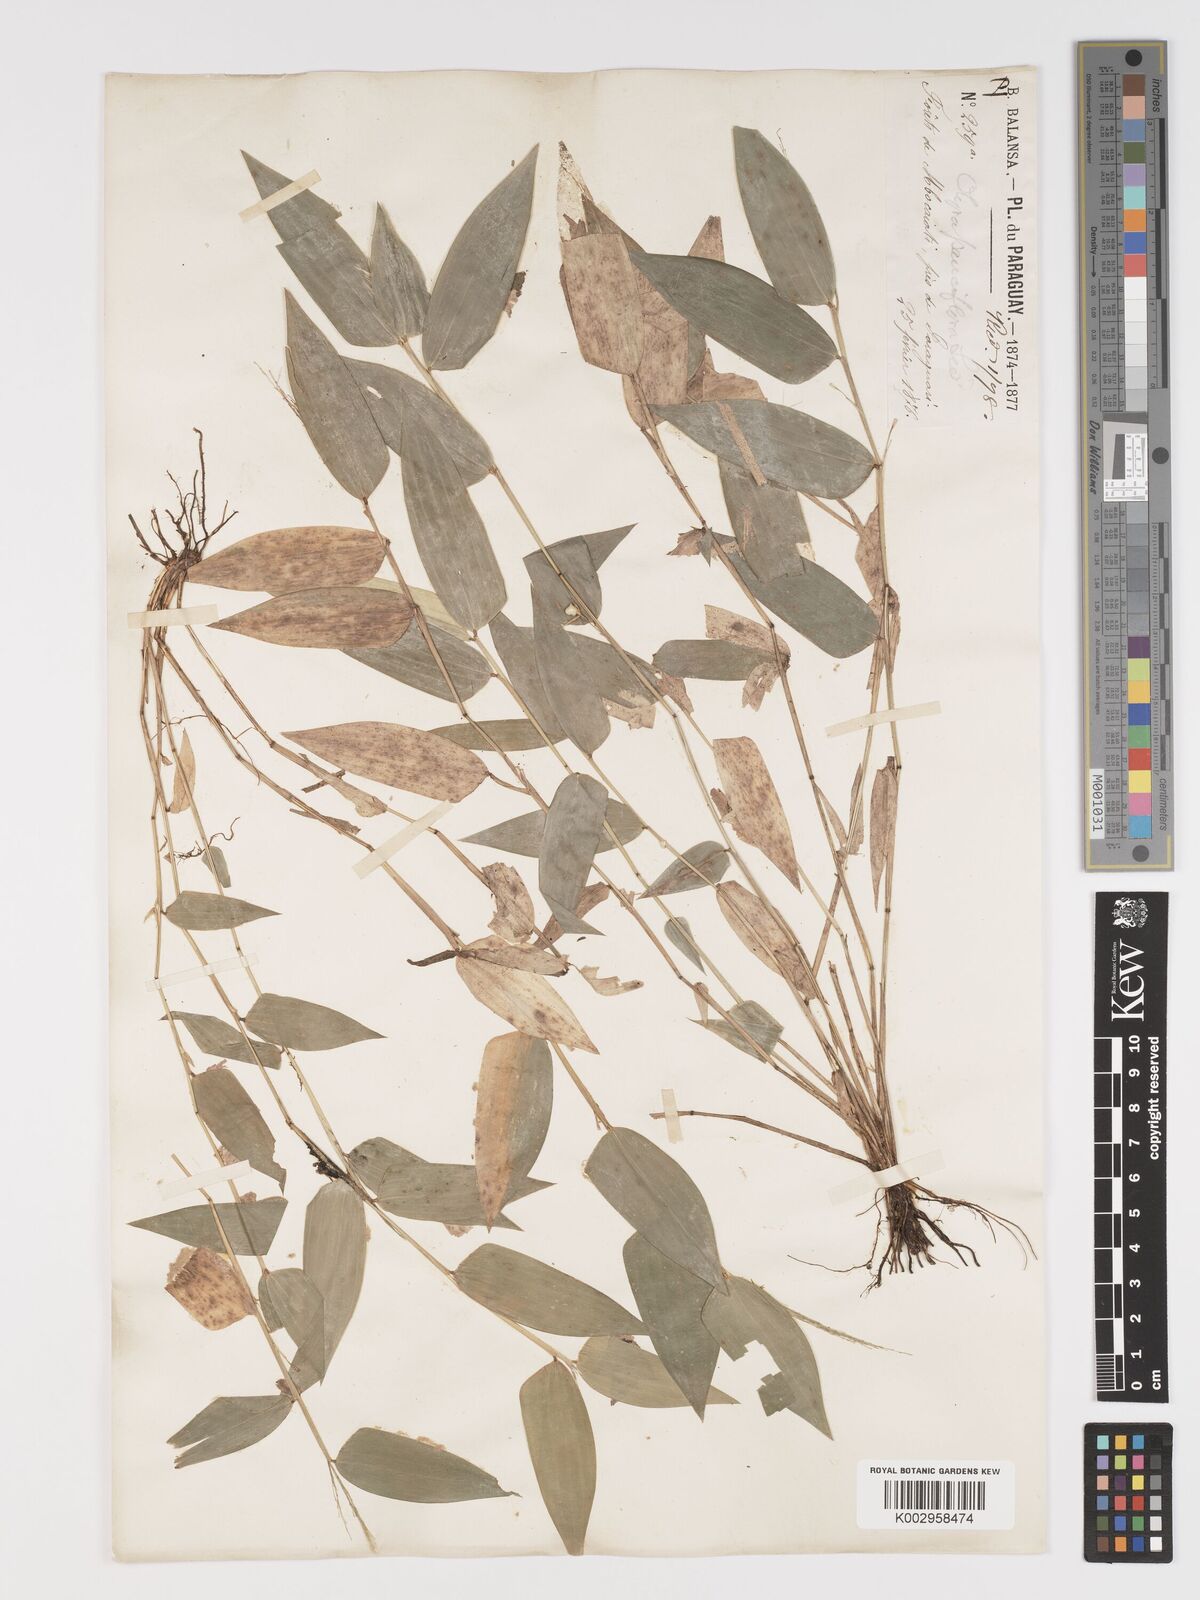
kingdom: Plantae
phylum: Tracheophyta
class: Liliopsida
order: Poales
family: Poaceae
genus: Lithachne
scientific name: Lithachne pauciflora
